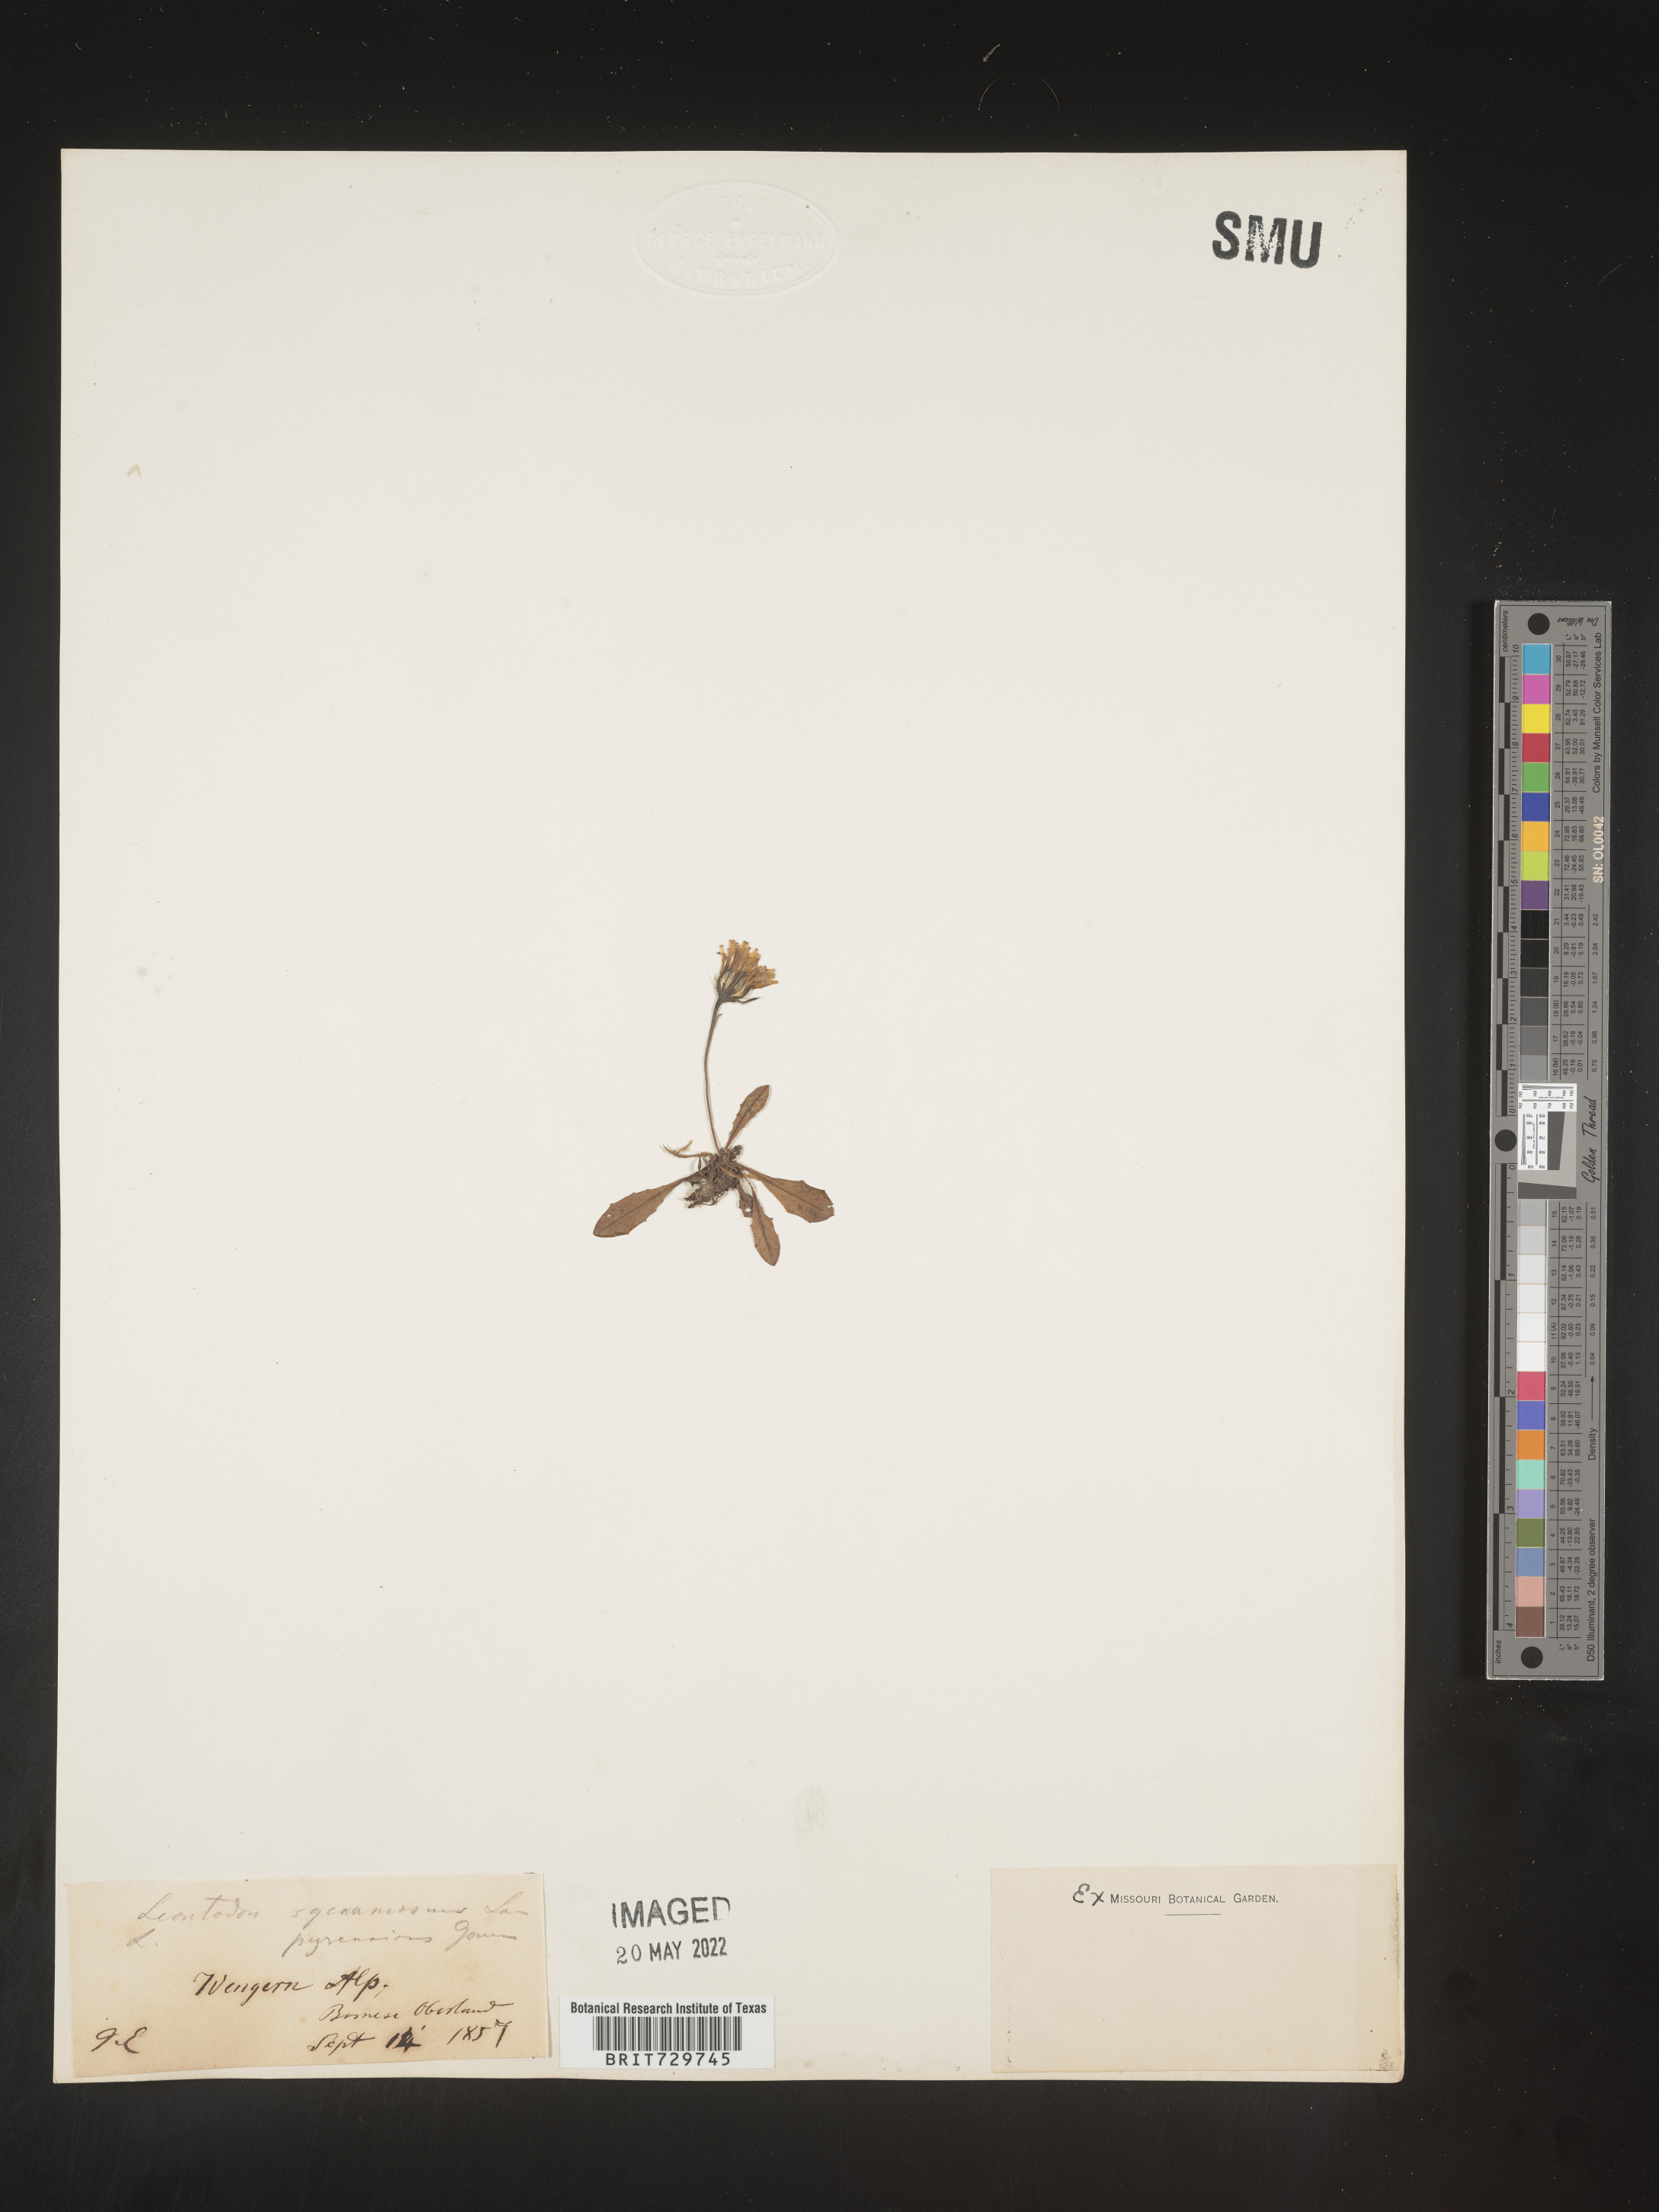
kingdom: Plantae
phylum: Tracheophyta
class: Magnoliopsida
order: Asterales
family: Asteraceae
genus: Leontodon
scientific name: Leontodon
